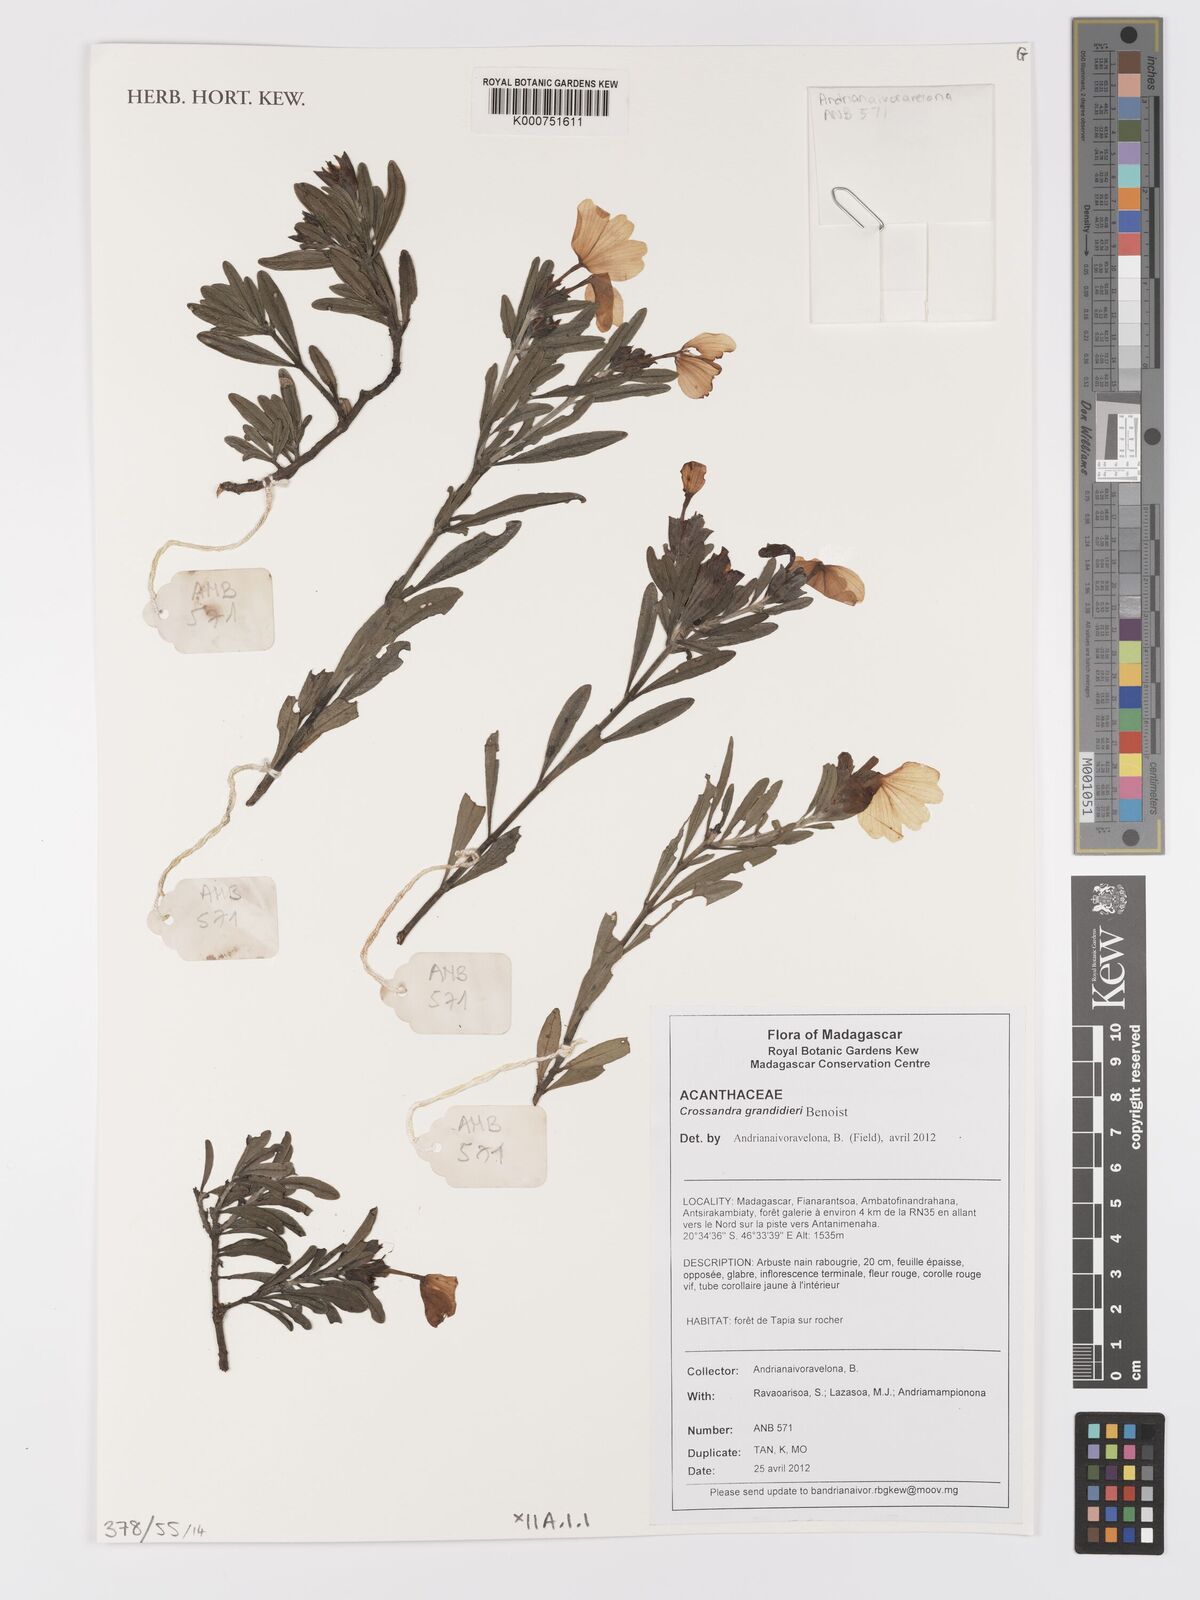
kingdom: Plantae
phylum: Tracheophyta
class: Magnoliopsida
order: Lamiales
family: Acanthaceae
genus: Crossandra
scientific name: Crossandra grandidieri
